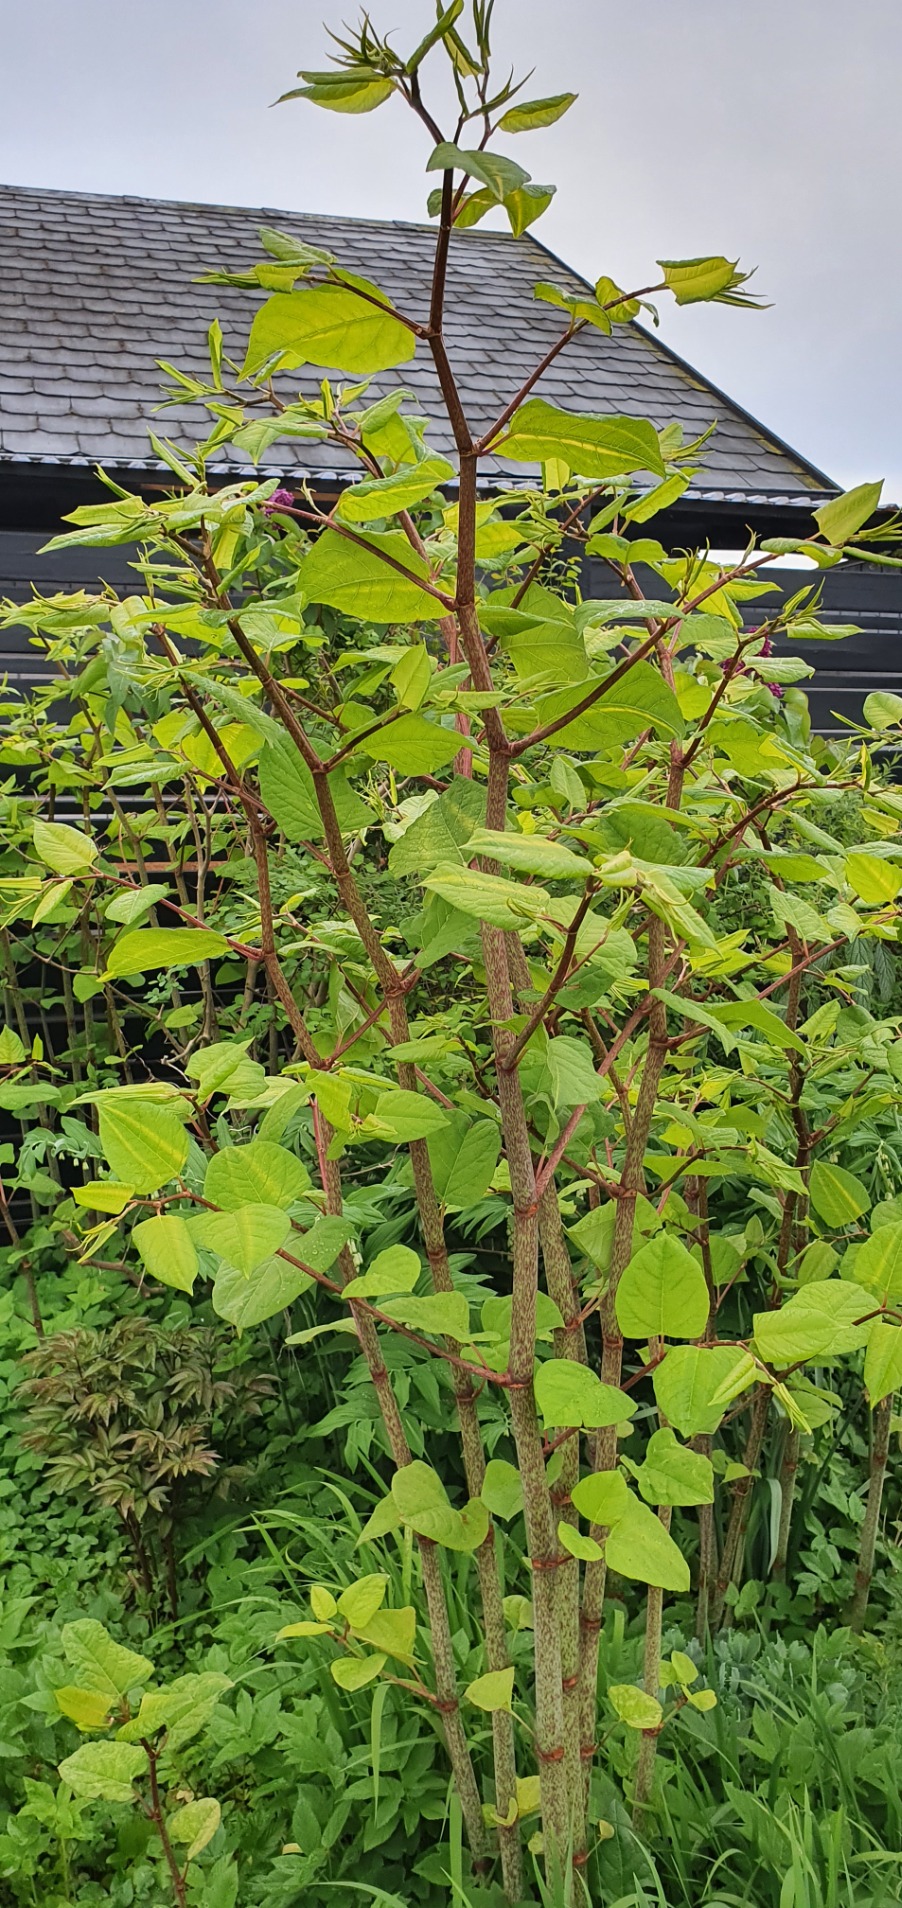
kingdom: Plantae
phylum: Tracheophyta
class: Magnoliopsida
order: Caryophyllales
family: Polygonaceae
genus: Reynoutria
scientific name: Reynoutria japonica
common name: Japan-pileurt
